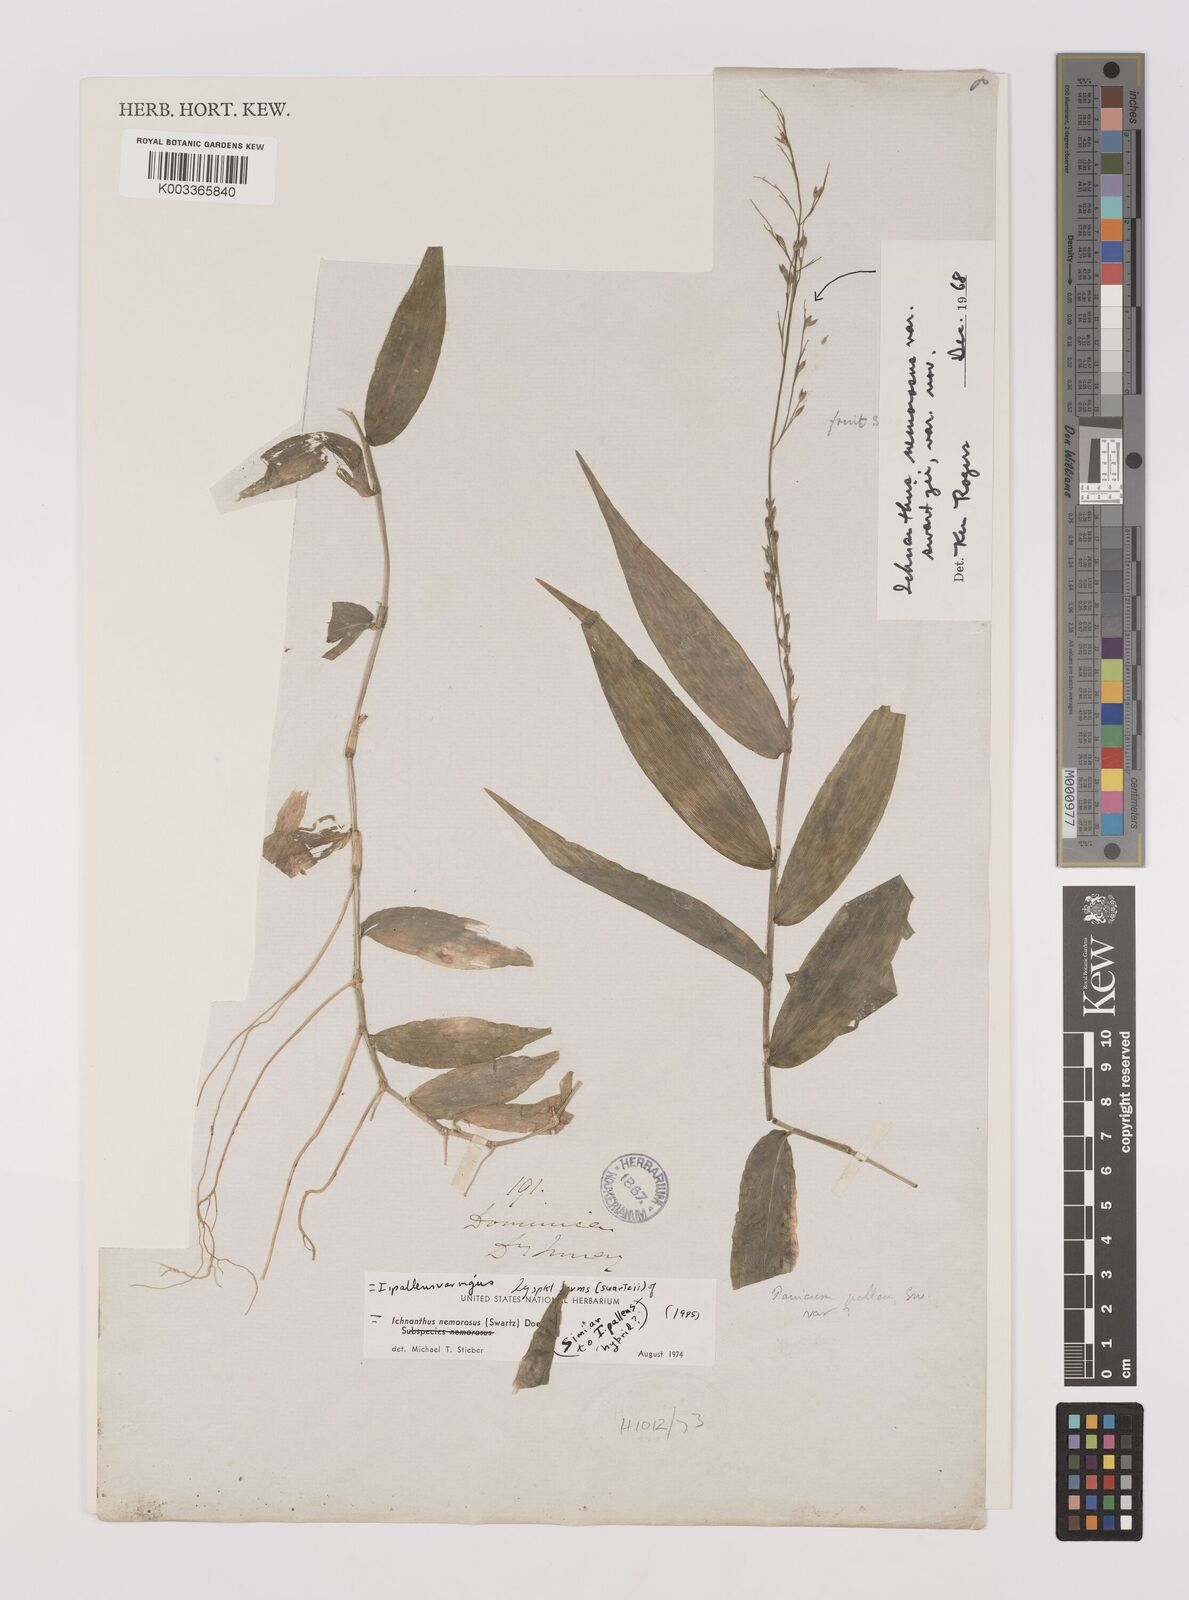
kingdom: Plantae
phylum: Tracheophyta
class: Liliopsida
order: Poales
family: Poaceae
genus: Ichnanthus
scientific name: Ichnanthus pallens
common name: Water grass
